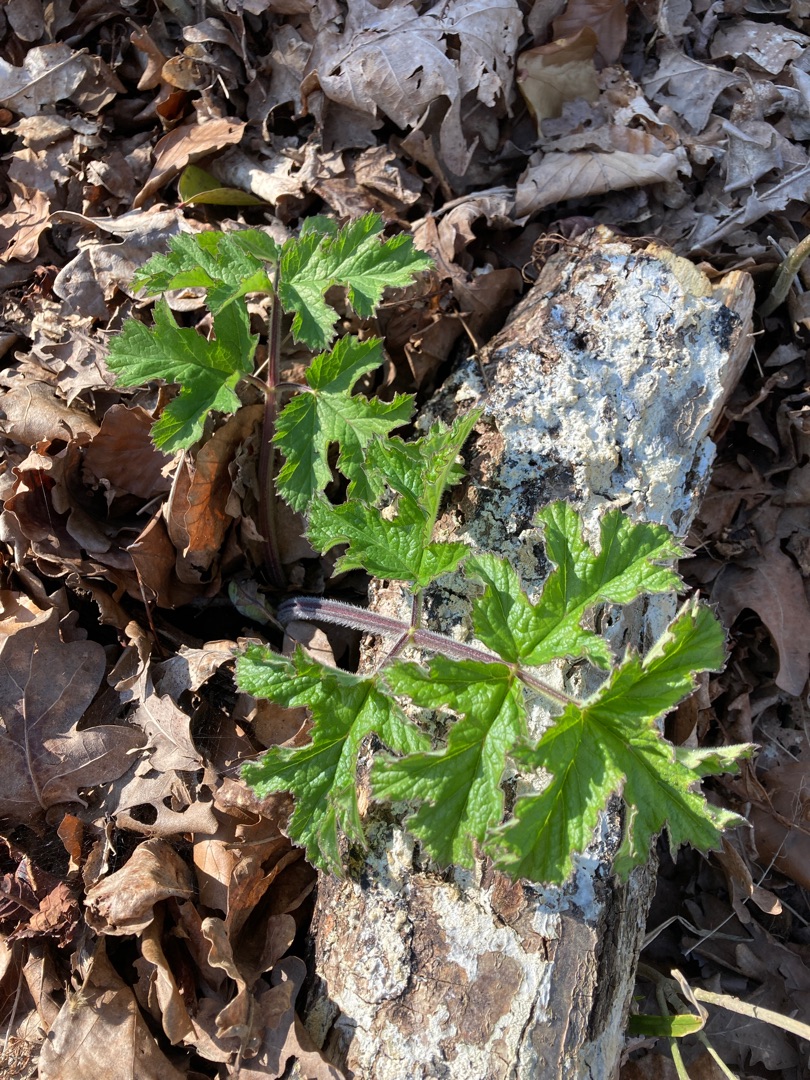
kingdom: Plantae
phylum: Tracheophyta
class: Magnoliopsida
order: Apiales
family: Apiaceae
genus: Heracleum
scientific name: Heracleum sphondylium
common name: Almindelig bjørneklo
